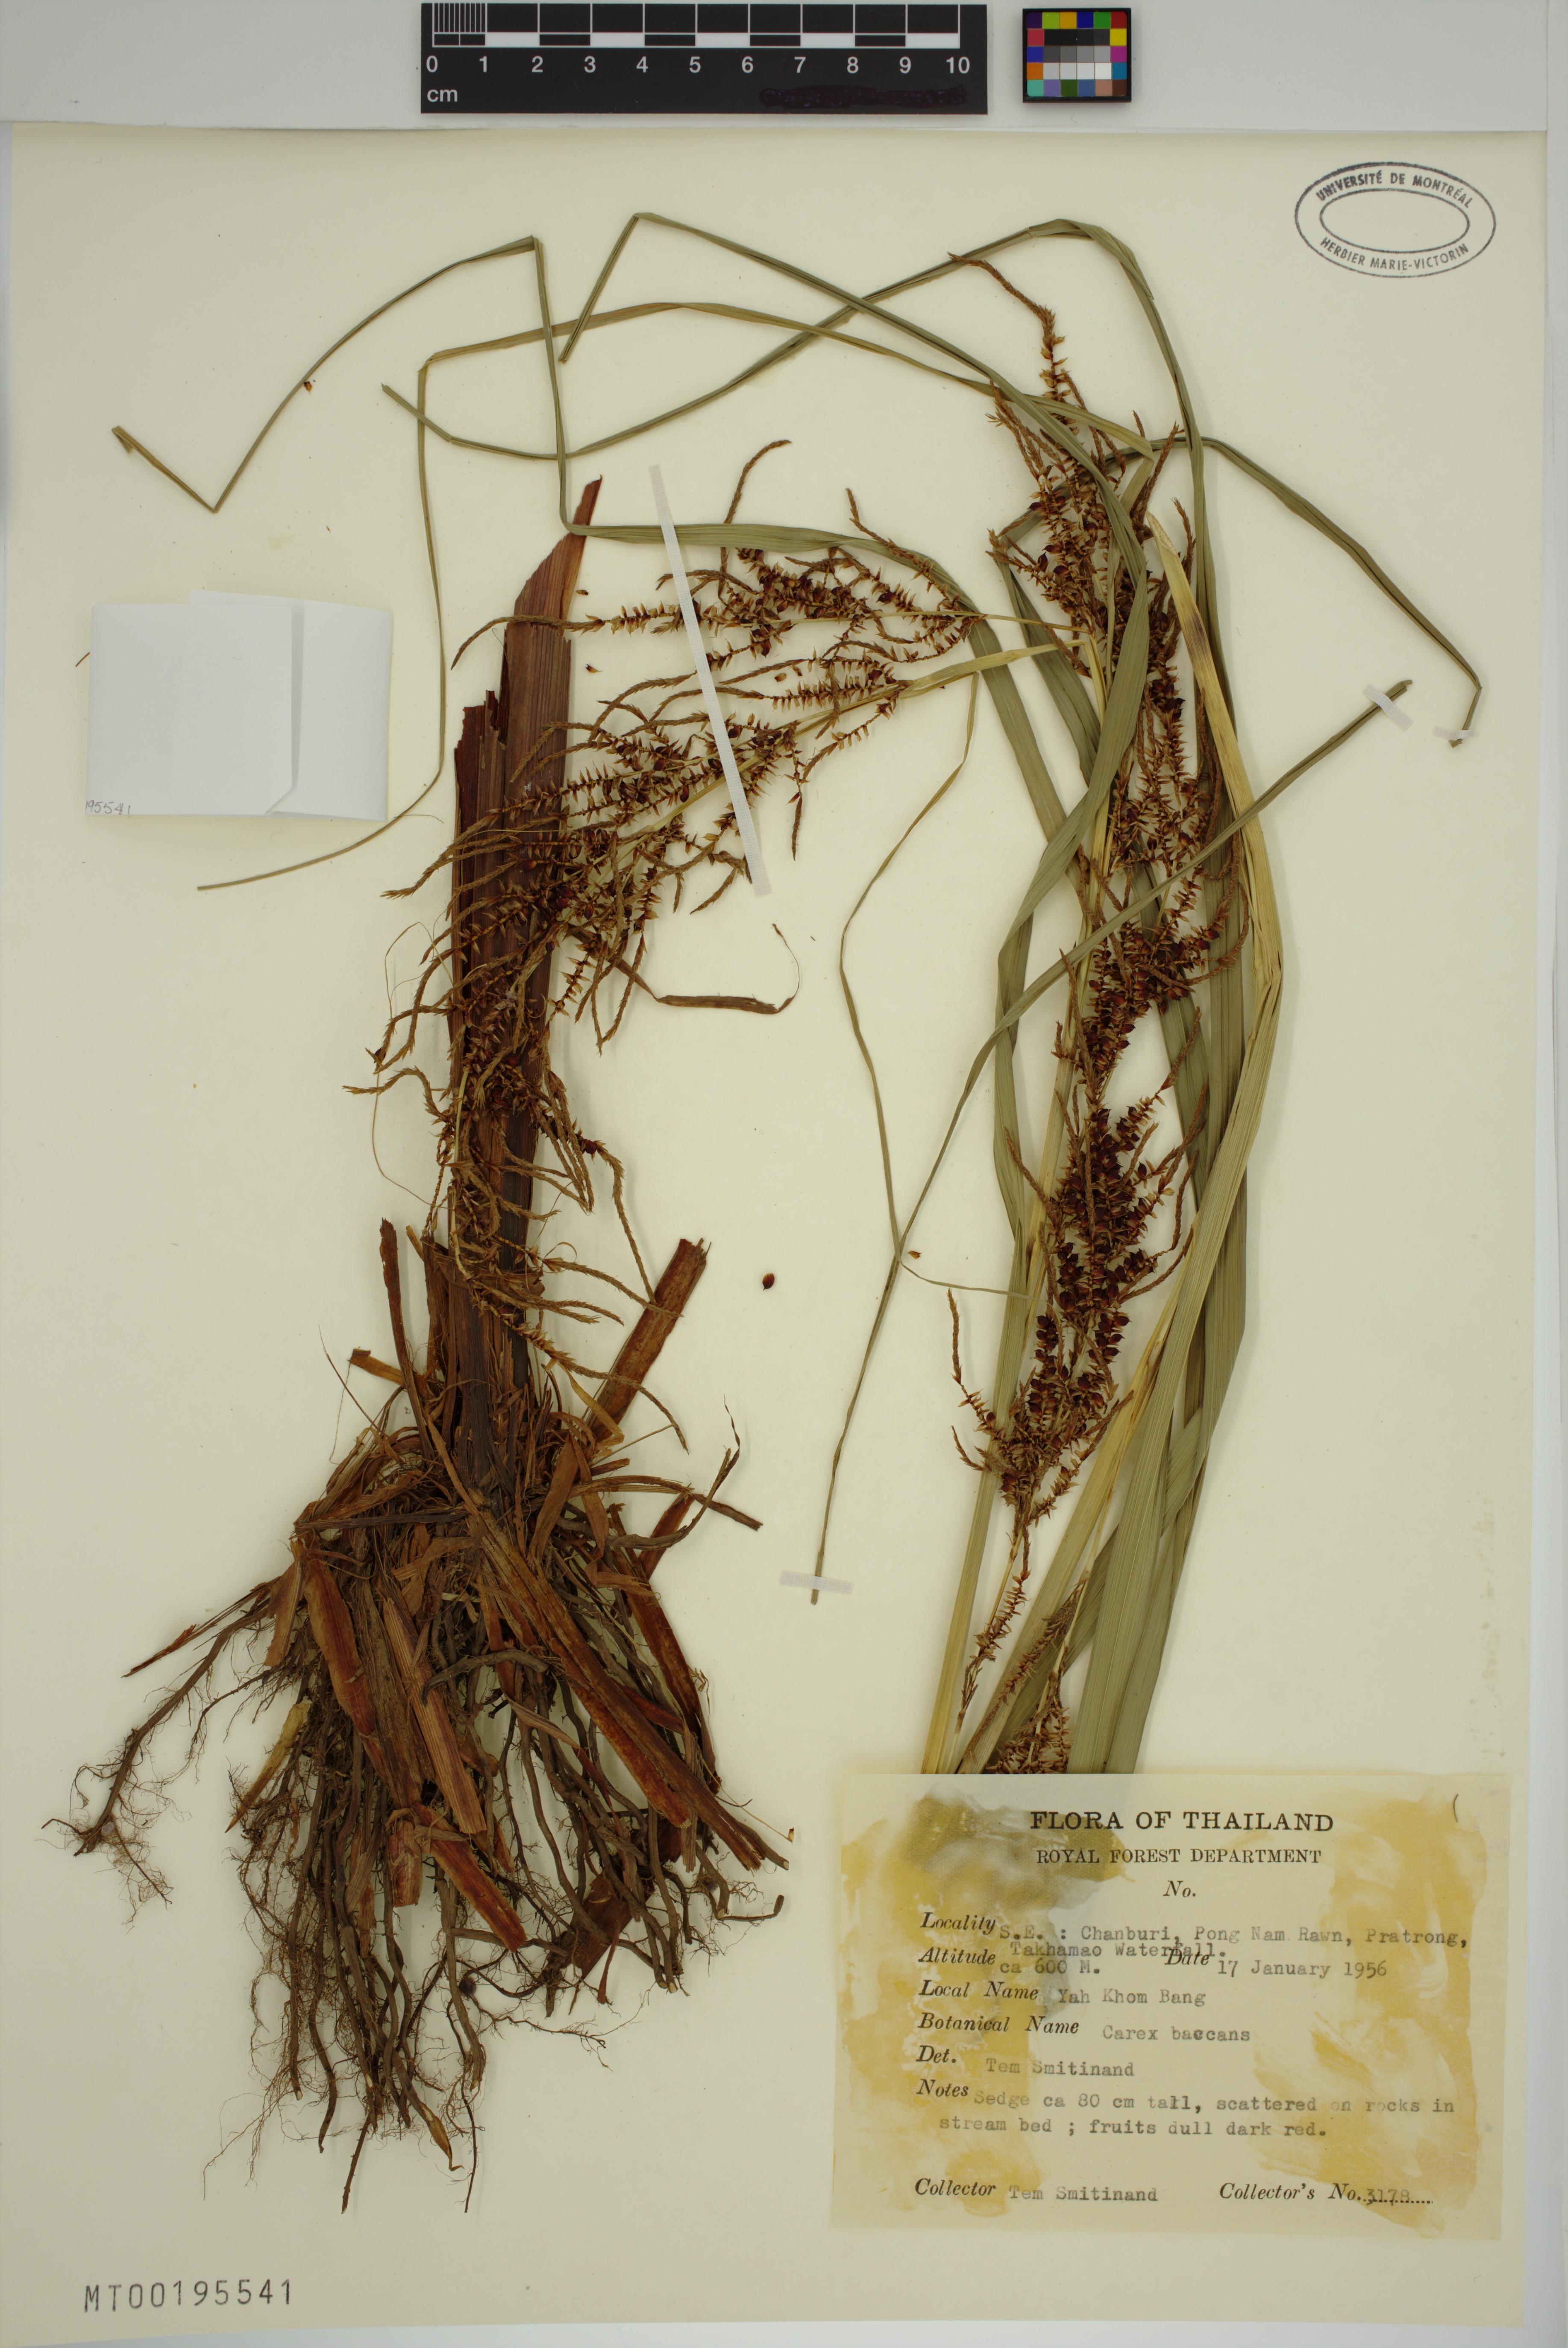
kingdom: Plantae
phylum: Tracheophyta
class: Liliopsida
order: Poales
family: Cyperaceae
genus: Carex
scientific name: Carex baccans
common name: Crimson seeded sedge
